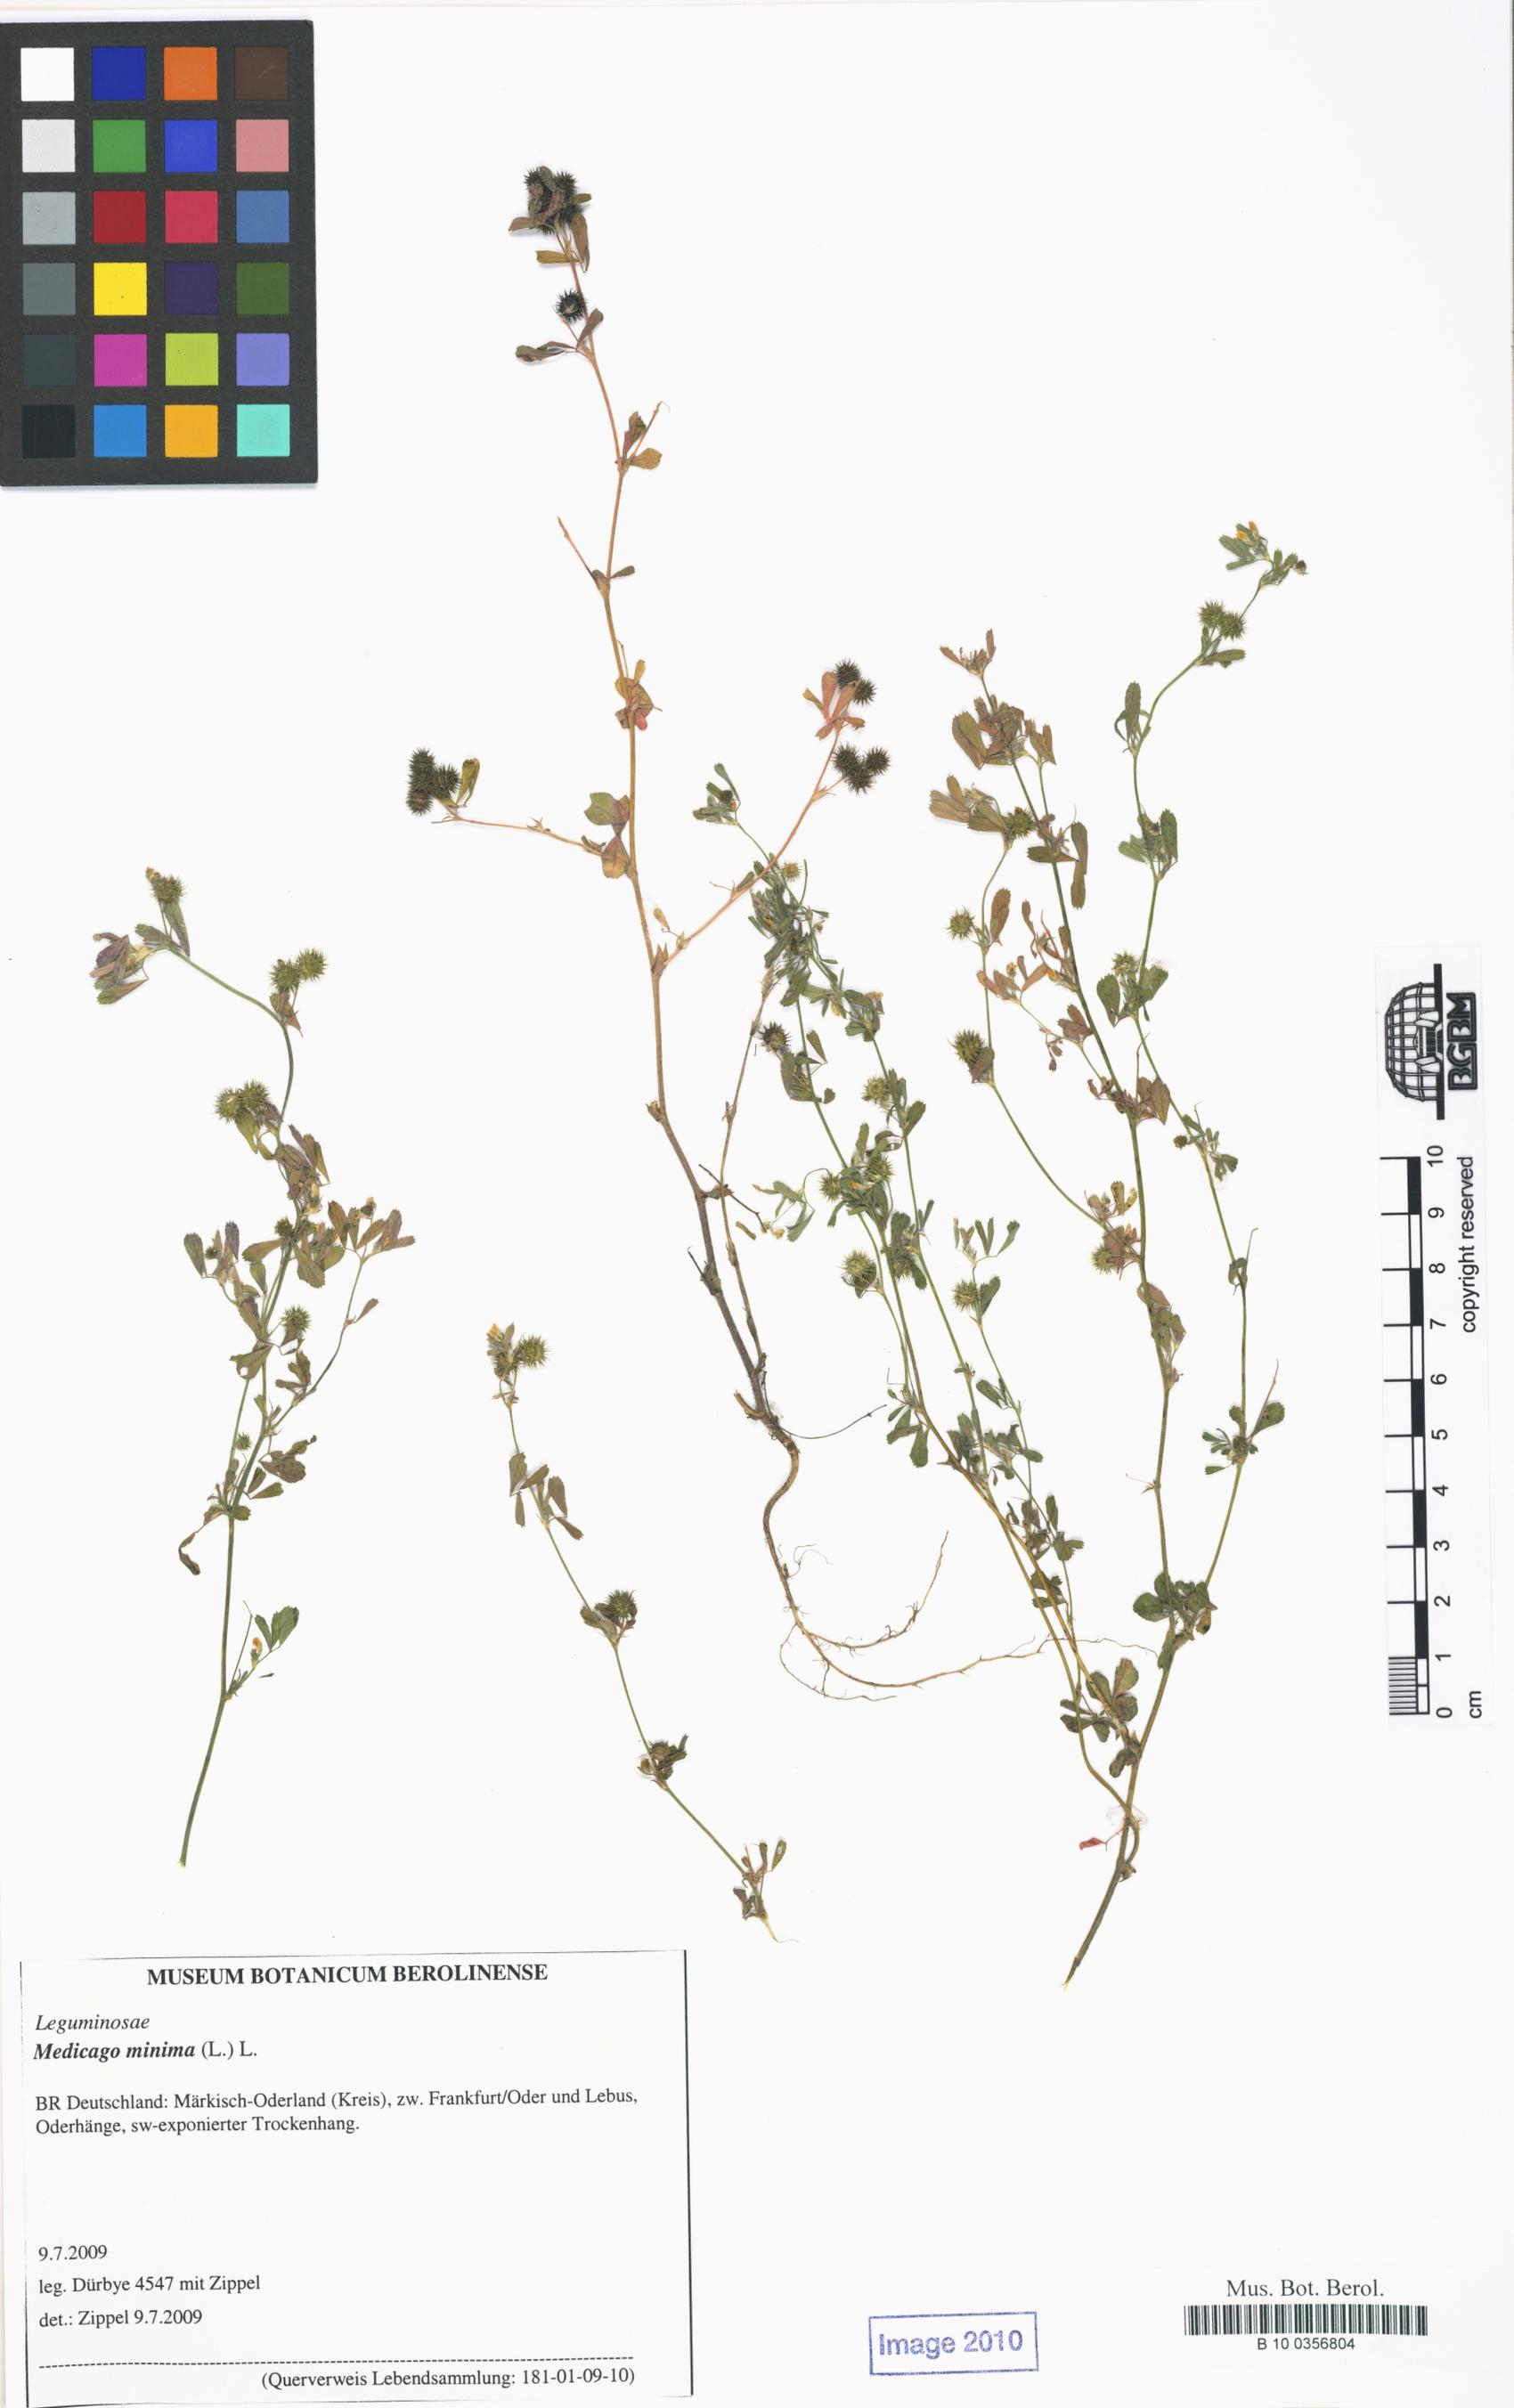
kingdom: Plantae
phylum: Tracheophyta
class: Magnoliopsida
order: Fabales
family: Fabaceae
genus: Medicago
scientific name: Medicago minima
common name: Little bur-clover
